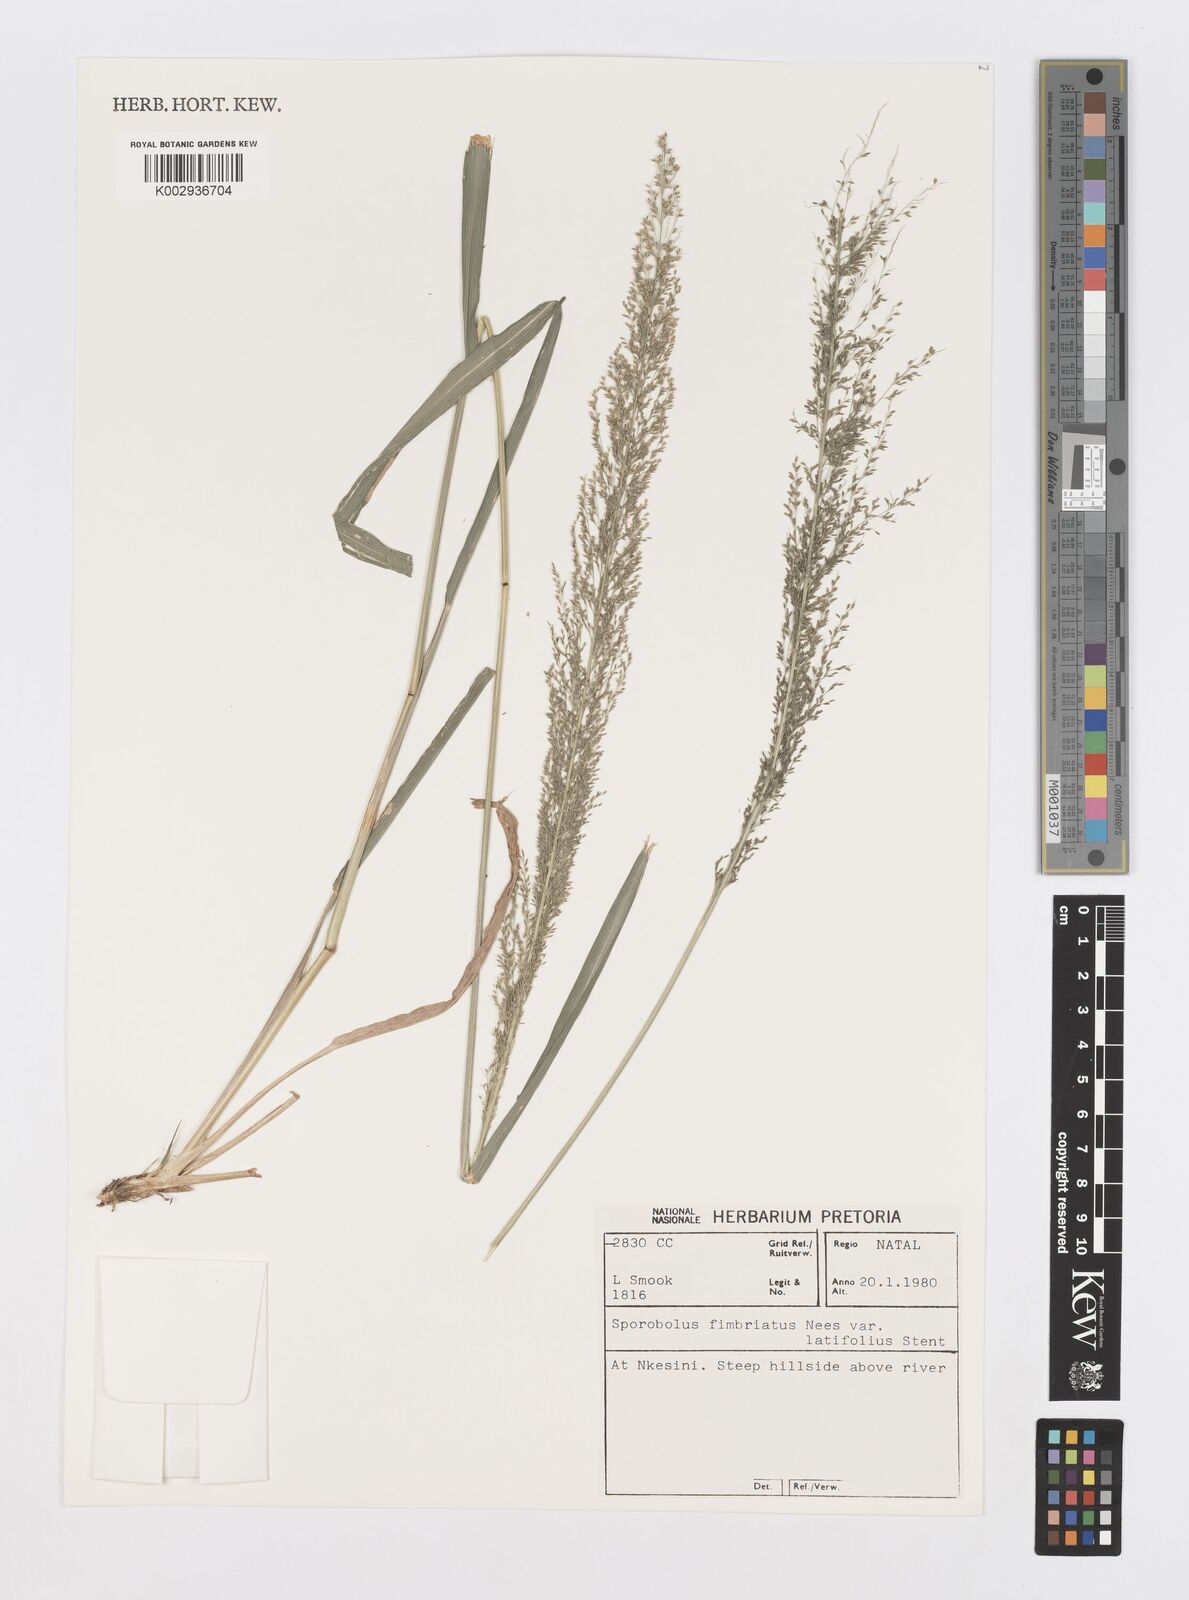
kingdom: Plantae
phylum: Tracheophyta
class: Liliopsida
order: Poales
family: Poaceae
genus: Sporobolus
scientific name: Sporobolus fimbriatus
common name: Fringed dropseed
